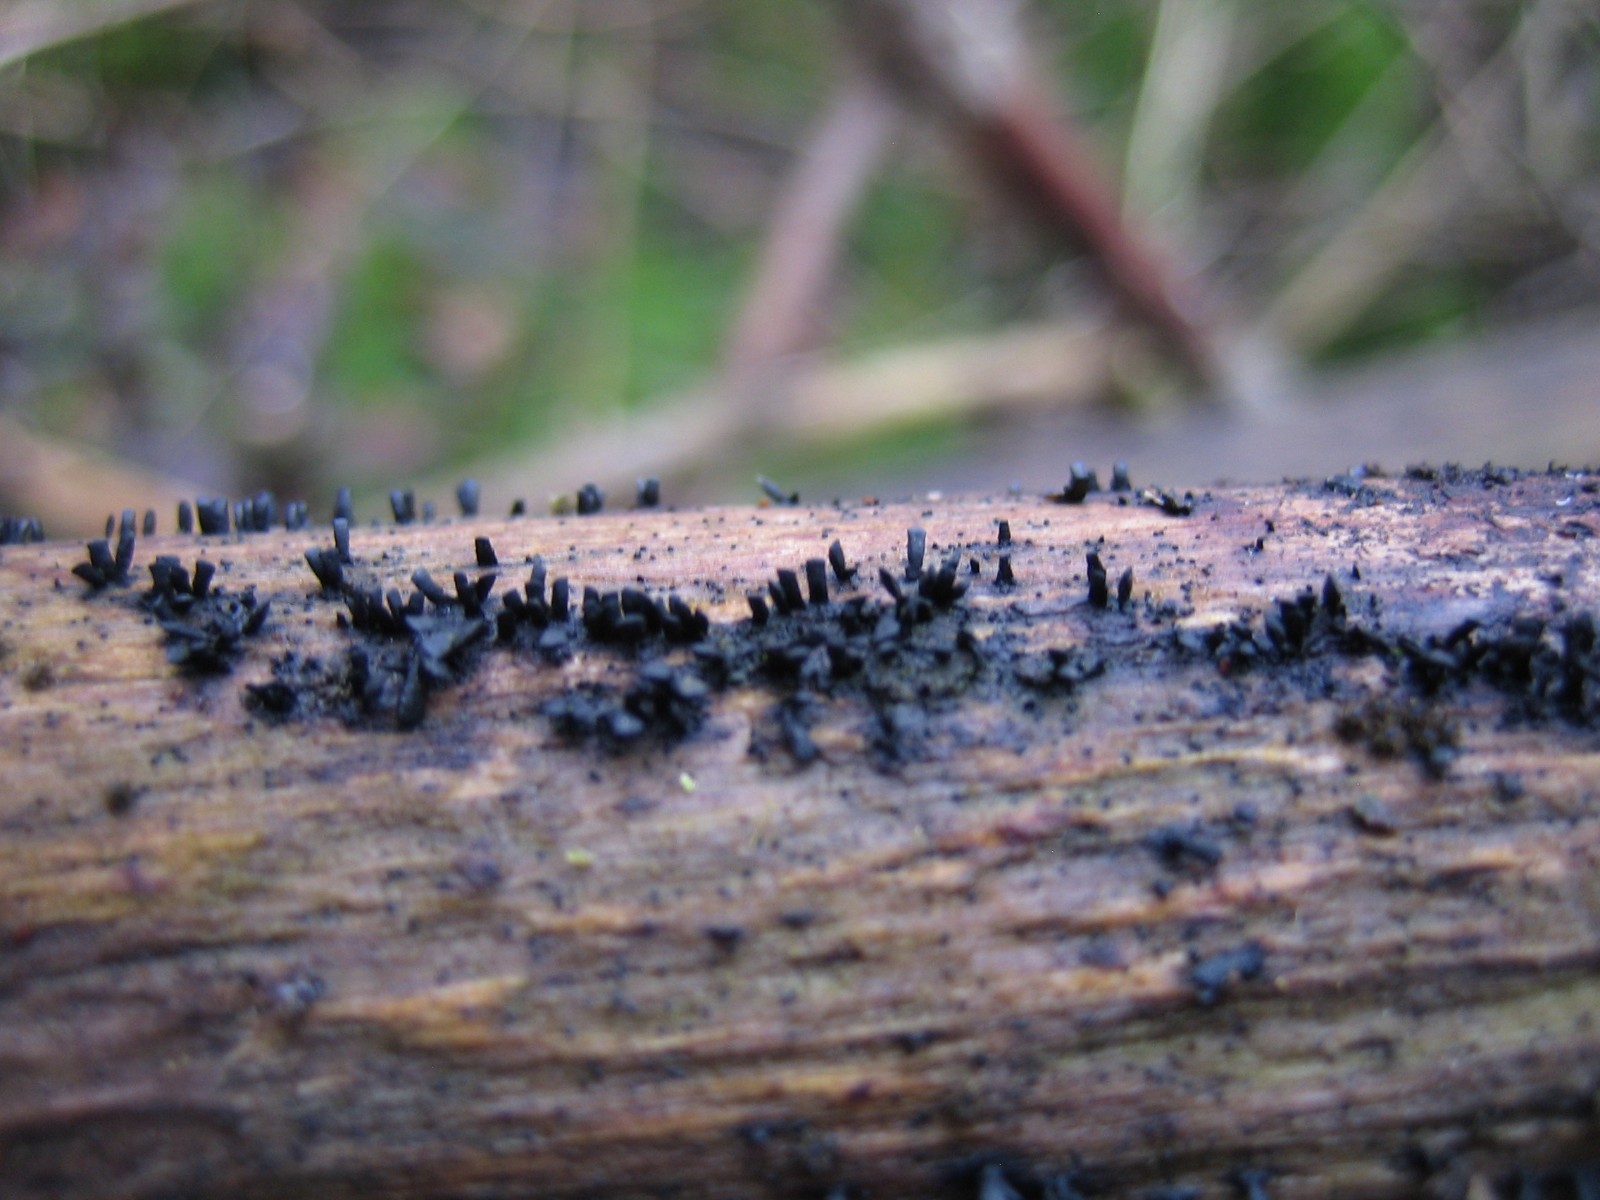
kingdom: Fungi
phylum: Ascomycota
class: Eurotiomycetes
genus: Glyphium
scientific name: Glyphium elatum
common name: kuløkse
